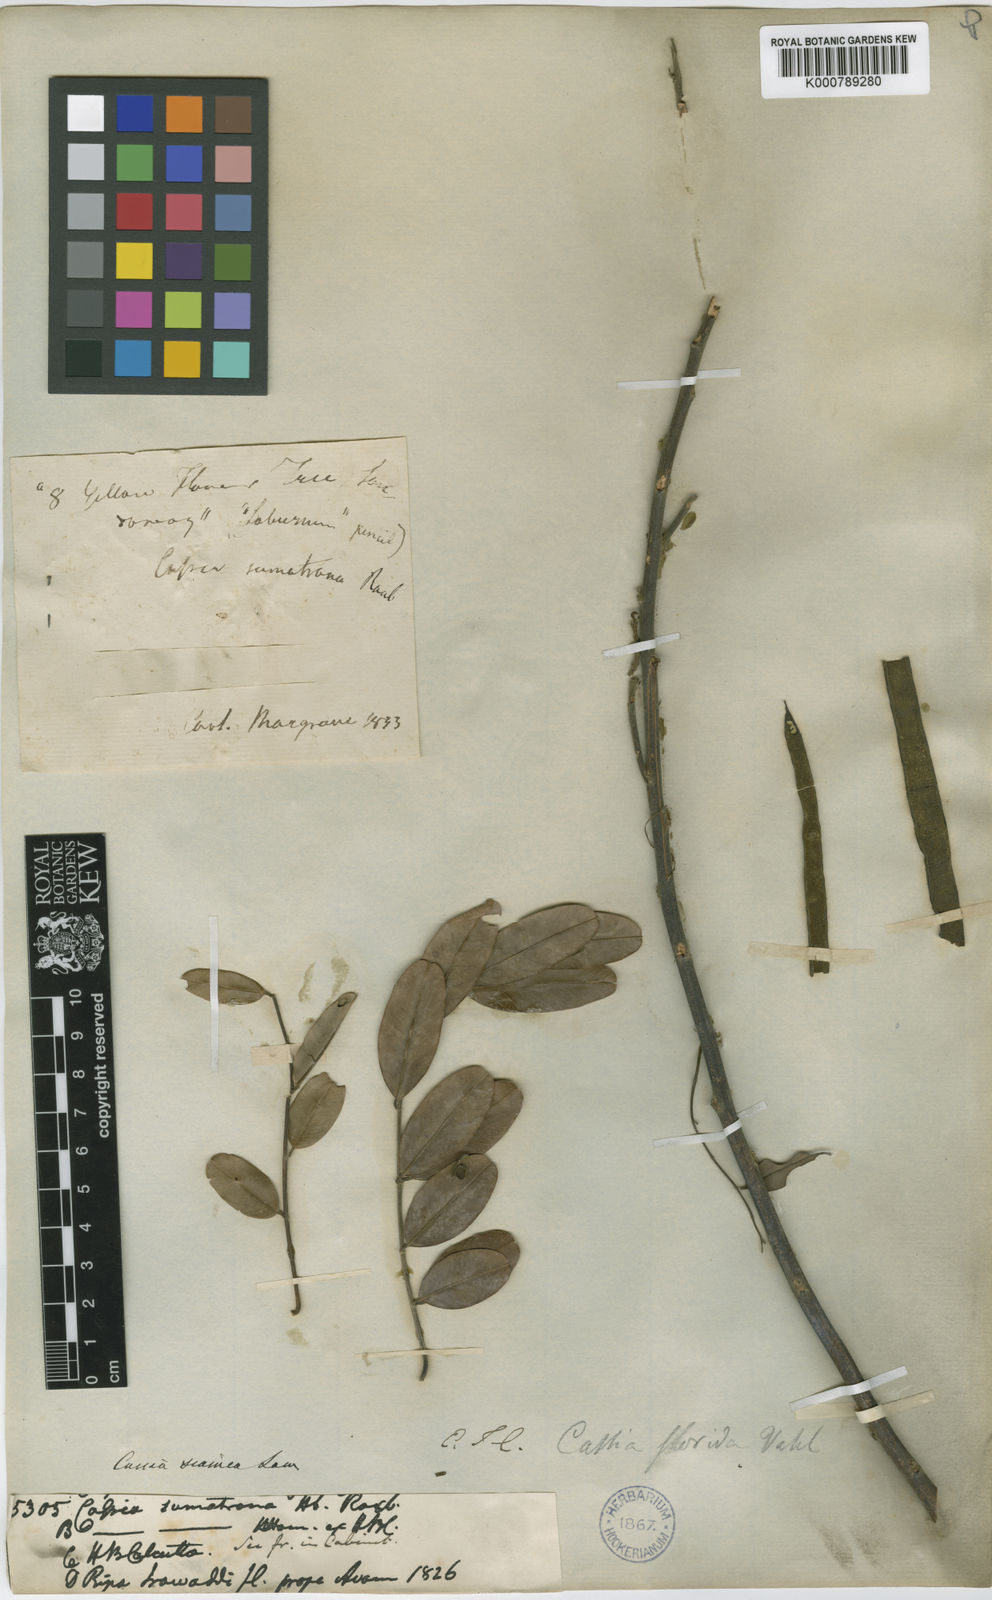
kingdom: Plantae
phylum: Tracheophyta
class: Magnoliopsida
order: Fabales
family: Fabaceae
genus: Senna
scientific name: Senna siamea
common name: Siamese cassia
